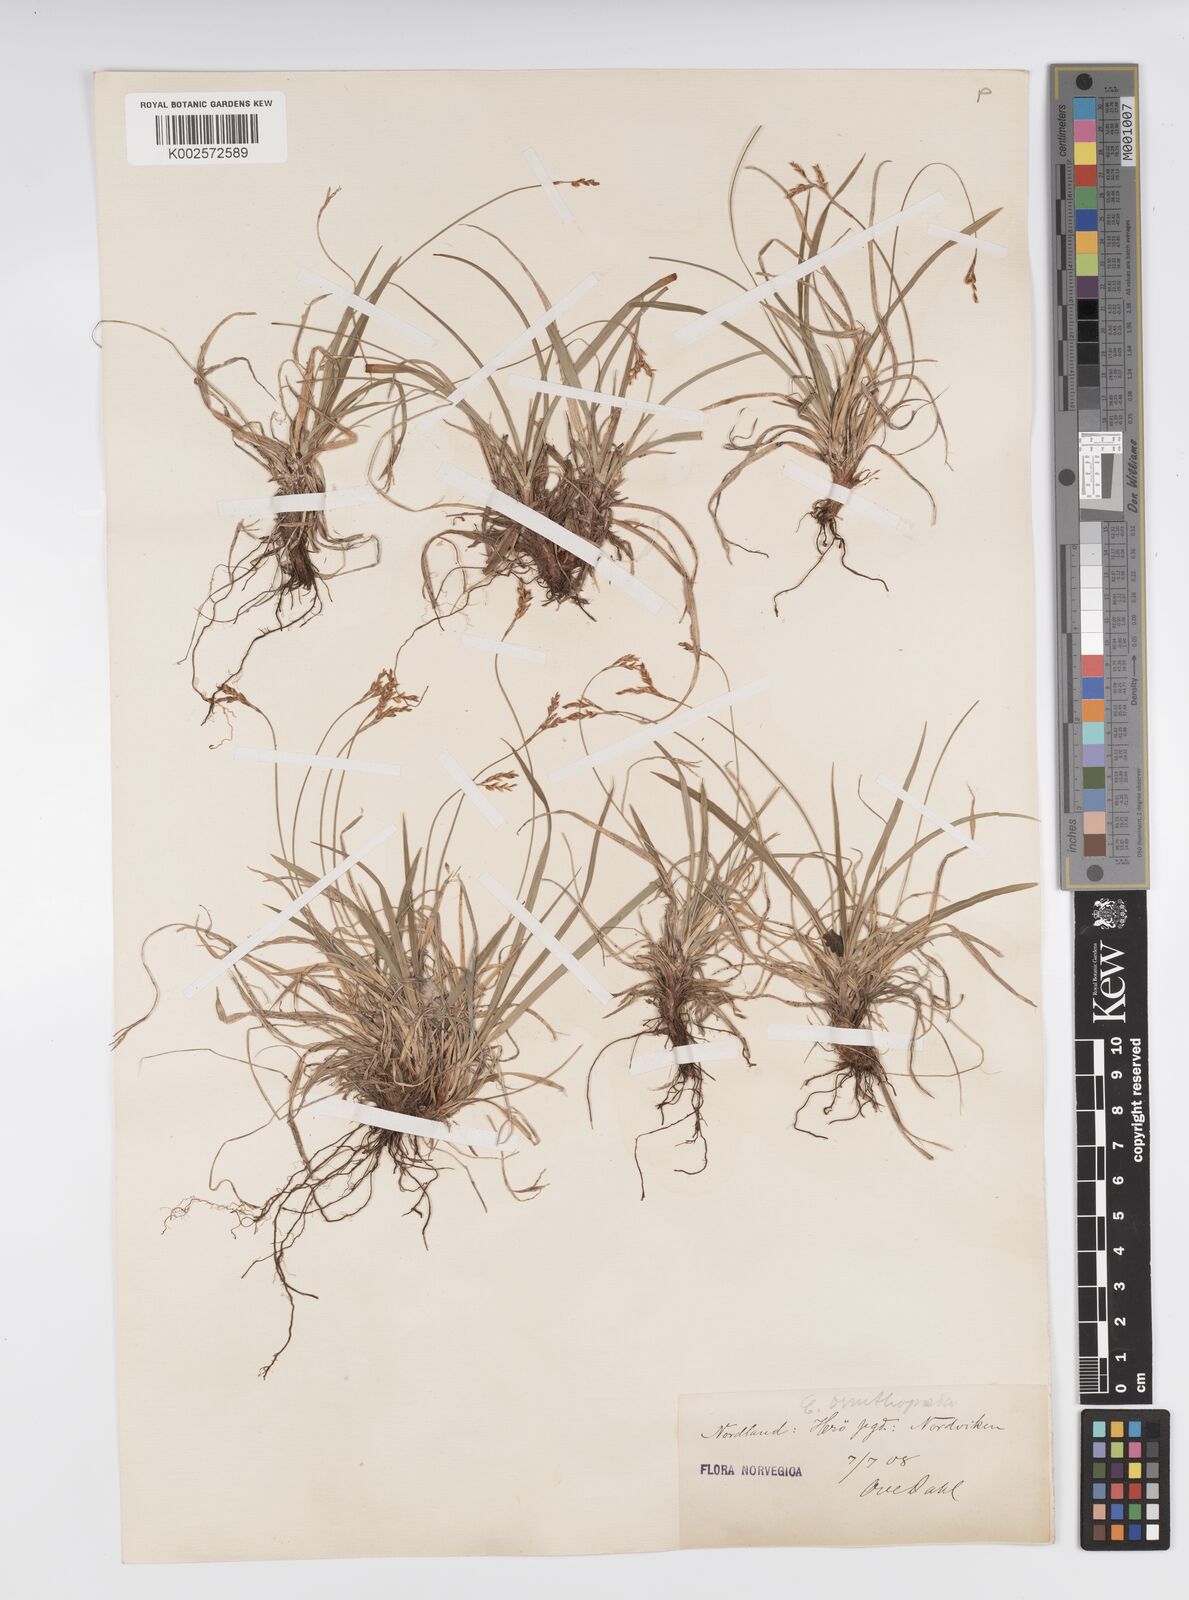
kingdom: Plantae
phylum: Tracheophyta
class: Liliopsida
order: Poales
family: Cyperaceae
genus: Carex
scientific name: Carex ornithopoda
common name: Bird's-foot sedge
